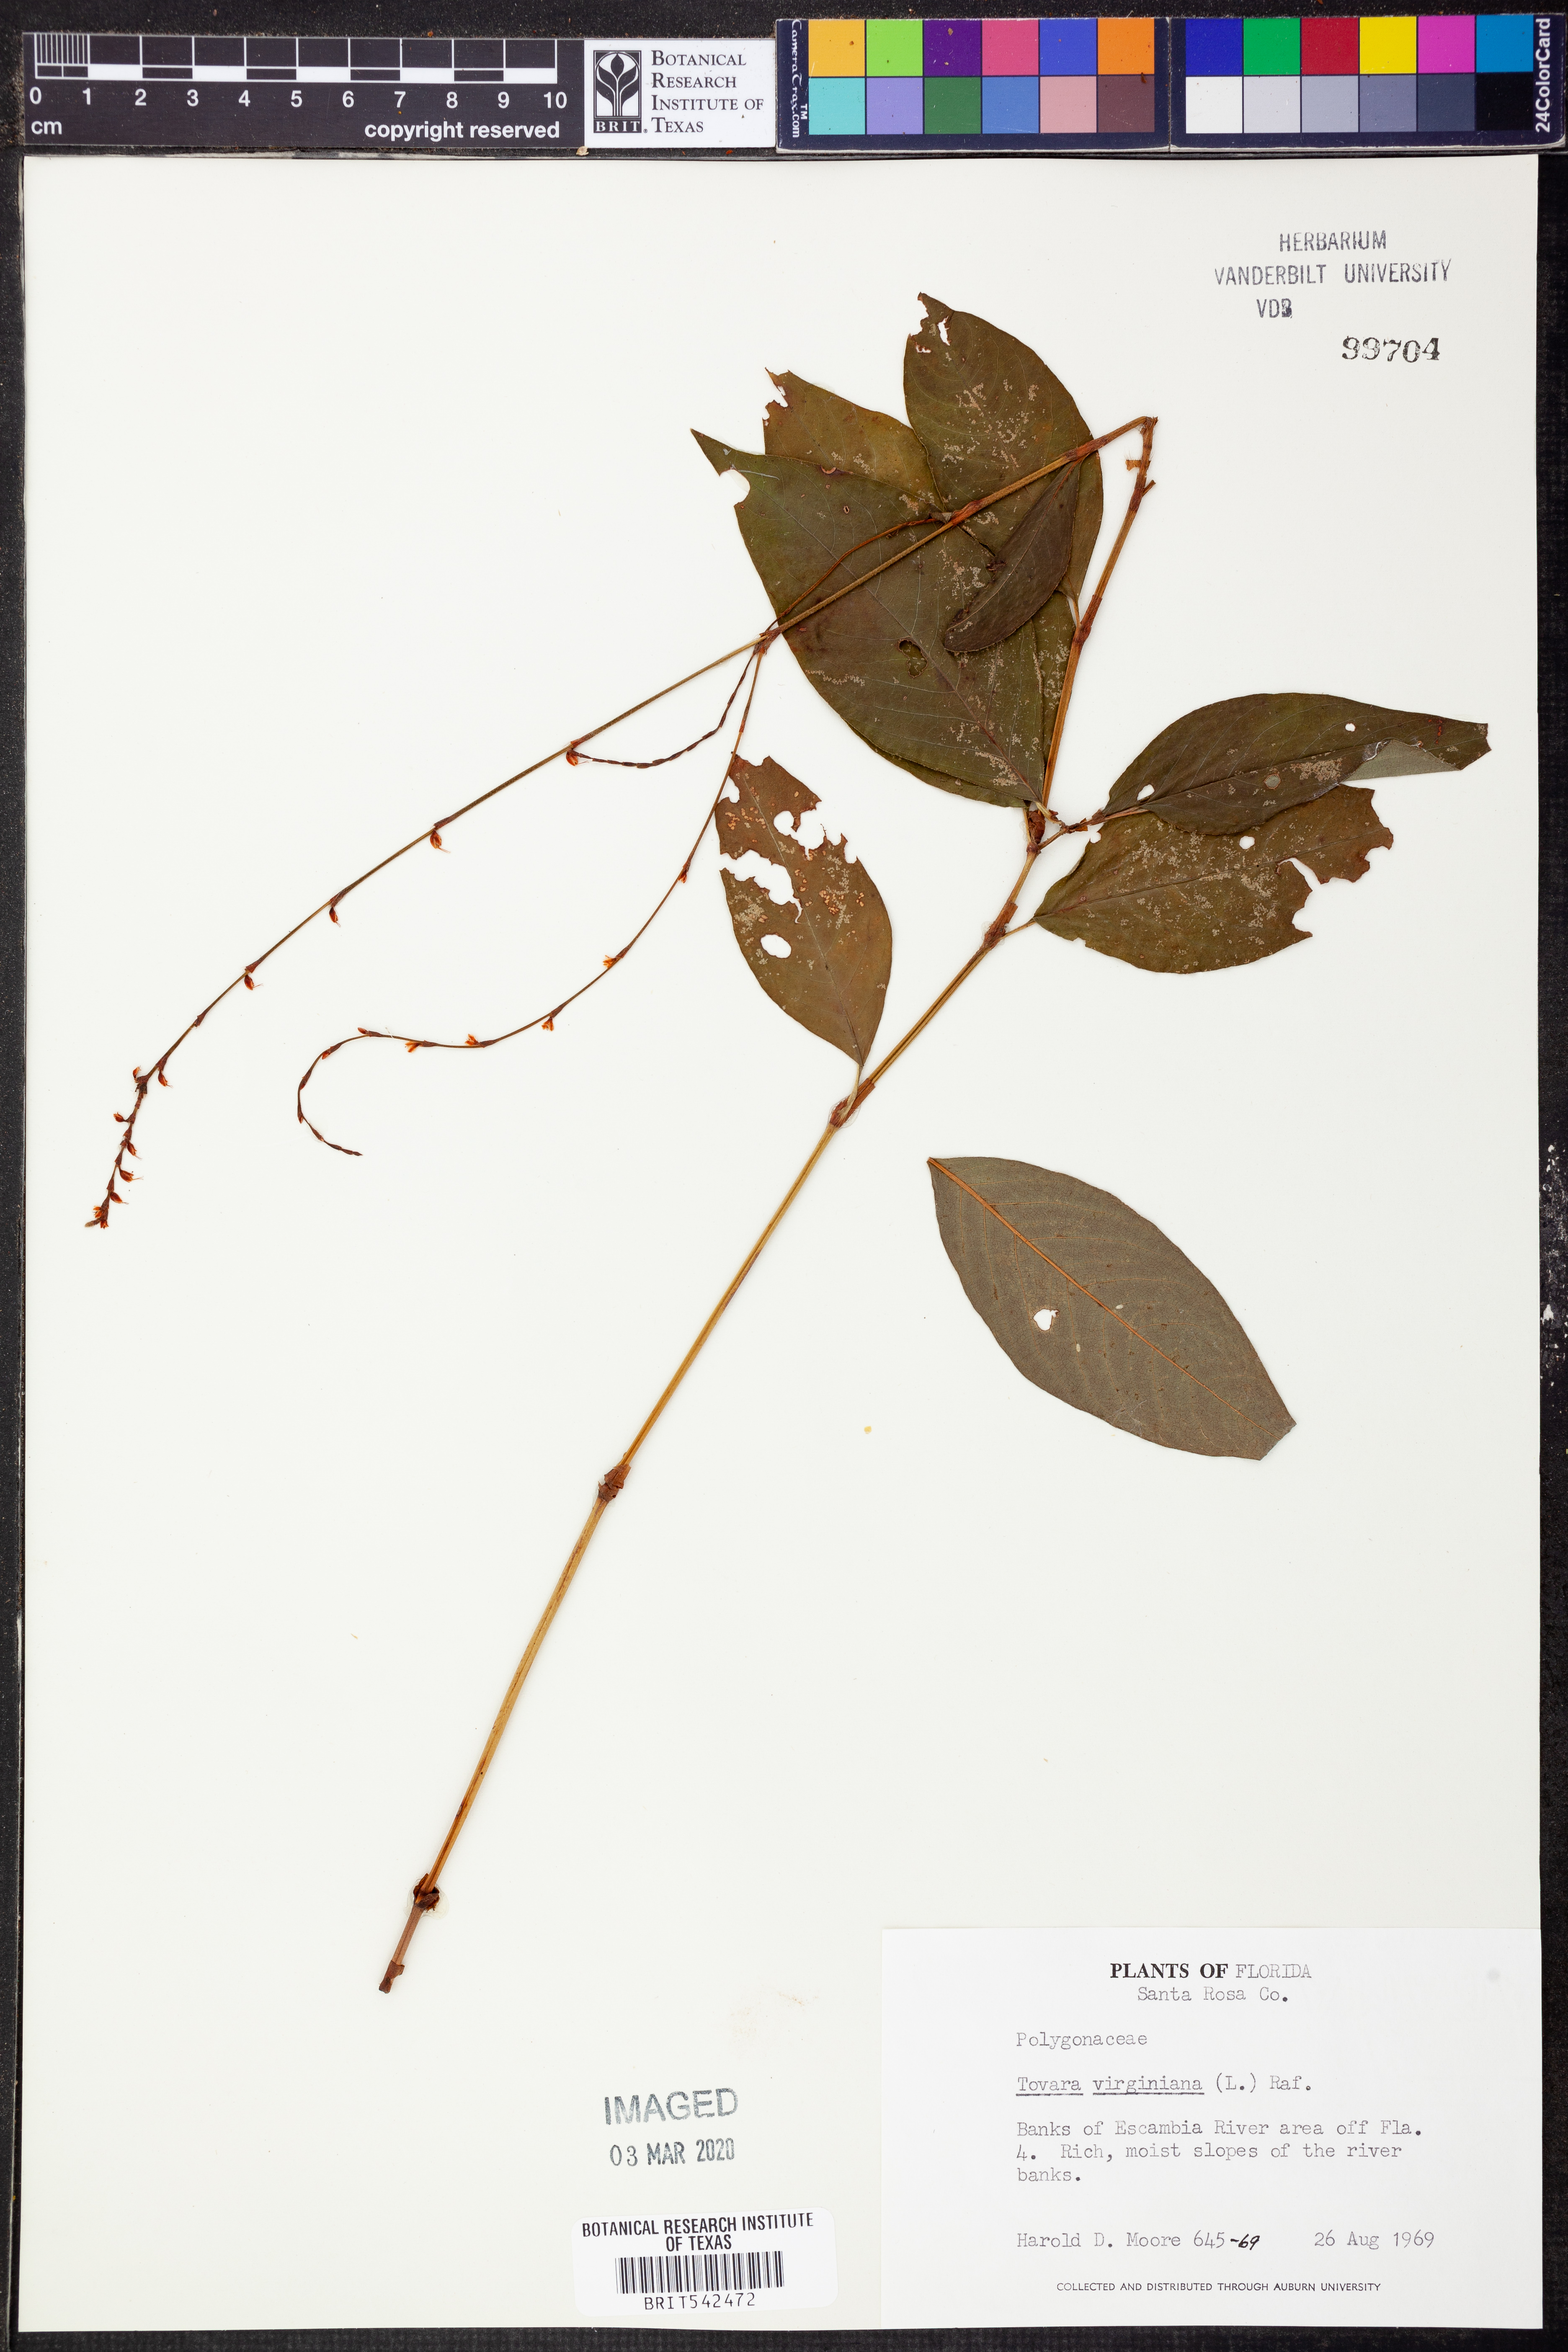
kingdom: Plantae
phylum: Tracheophyta
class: Magnoliopsida
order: Caryophyllales
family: Polygonaceae
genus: Persicaria
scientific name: Persicaria virginiana
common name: Jumpseed
